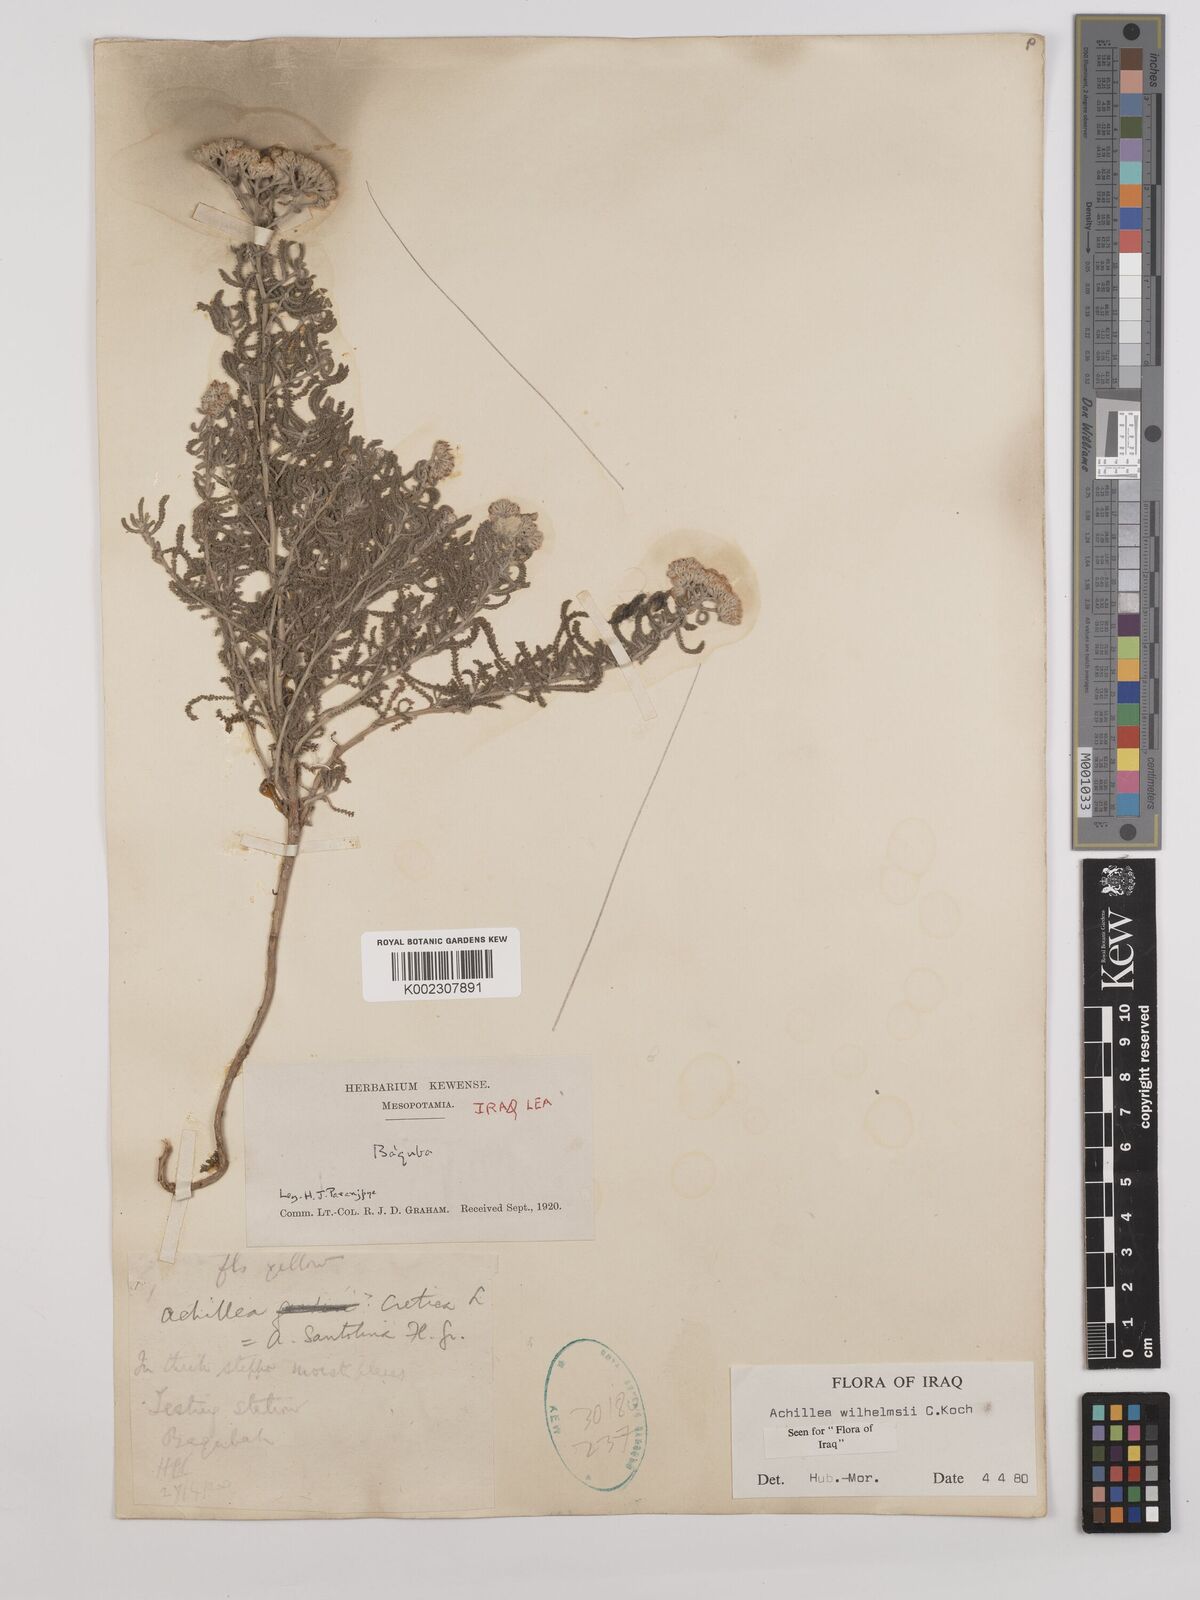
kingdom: Plantae
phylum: Tracheophyta
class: Magnoliopsida
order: Asterales
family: Asteraceae
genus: Achillea
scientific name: Achillea wilhelmsii
